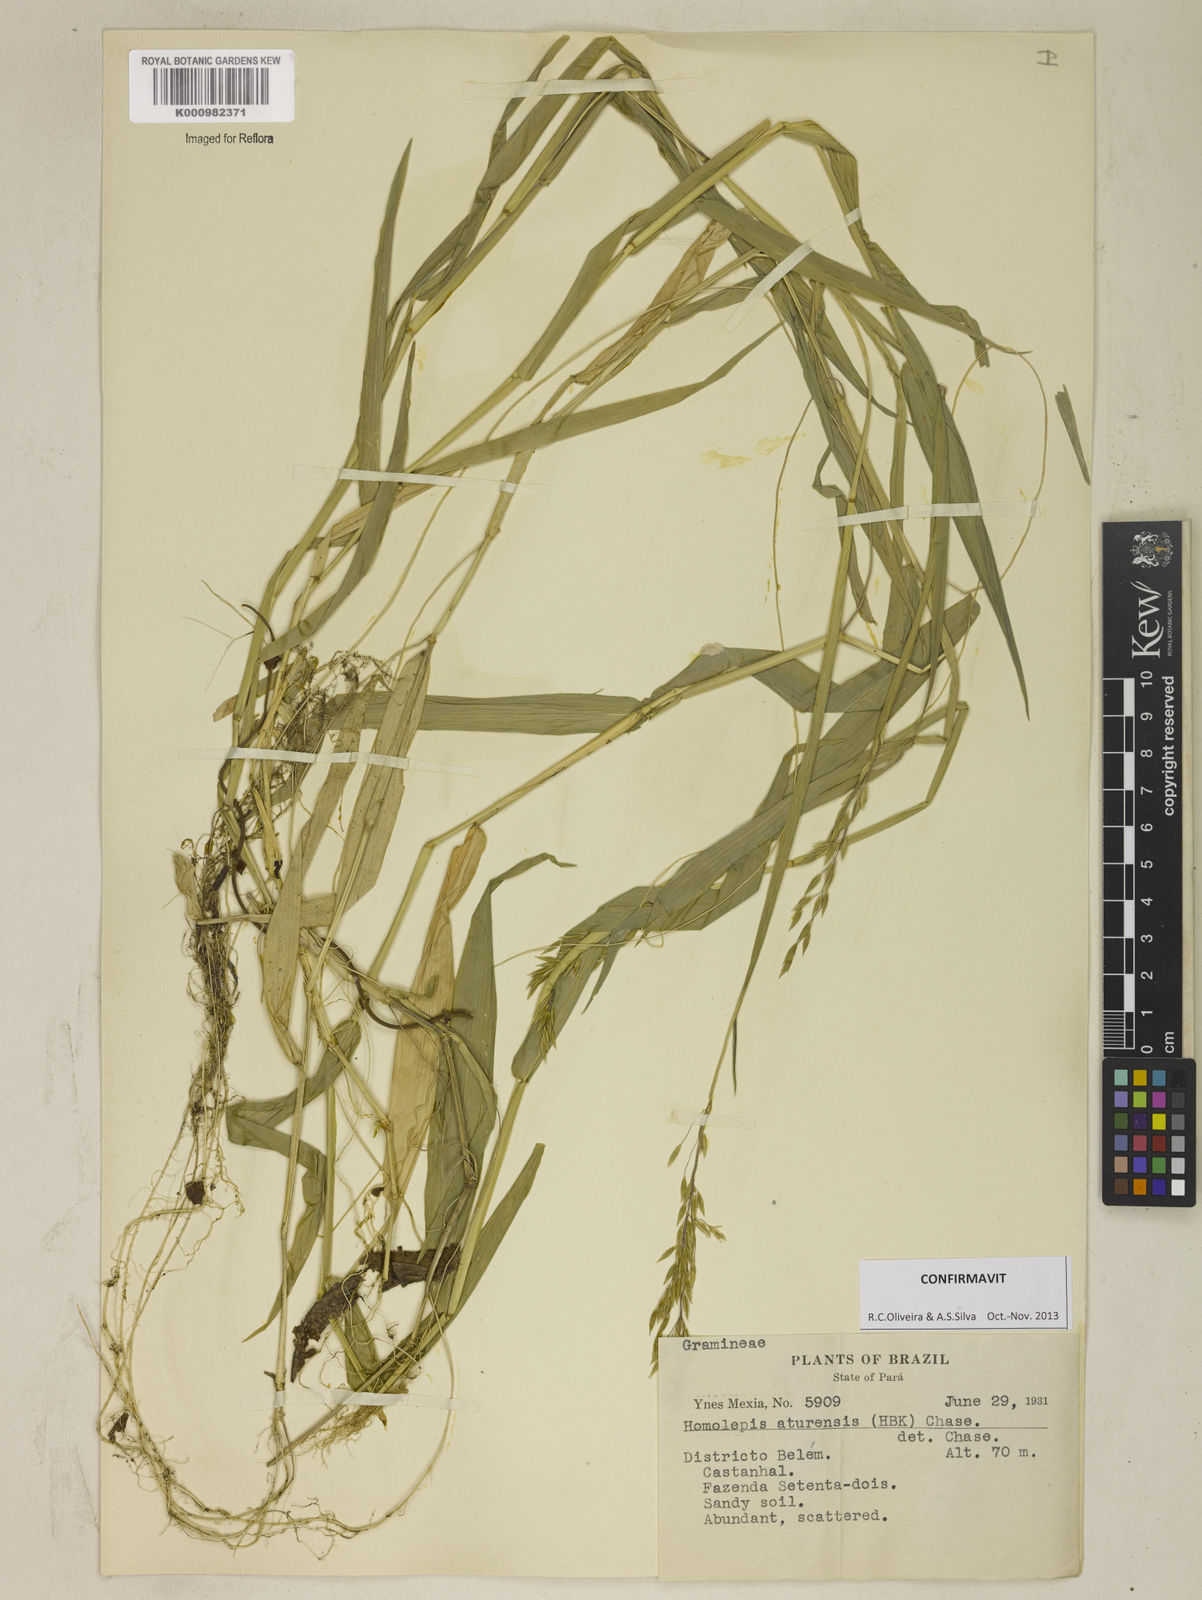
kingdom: Plantae
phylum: Tracheophyta
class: Liliopsida
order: Poales
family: Poaceae
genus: Homolepis
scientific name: Homolepis aturensis
